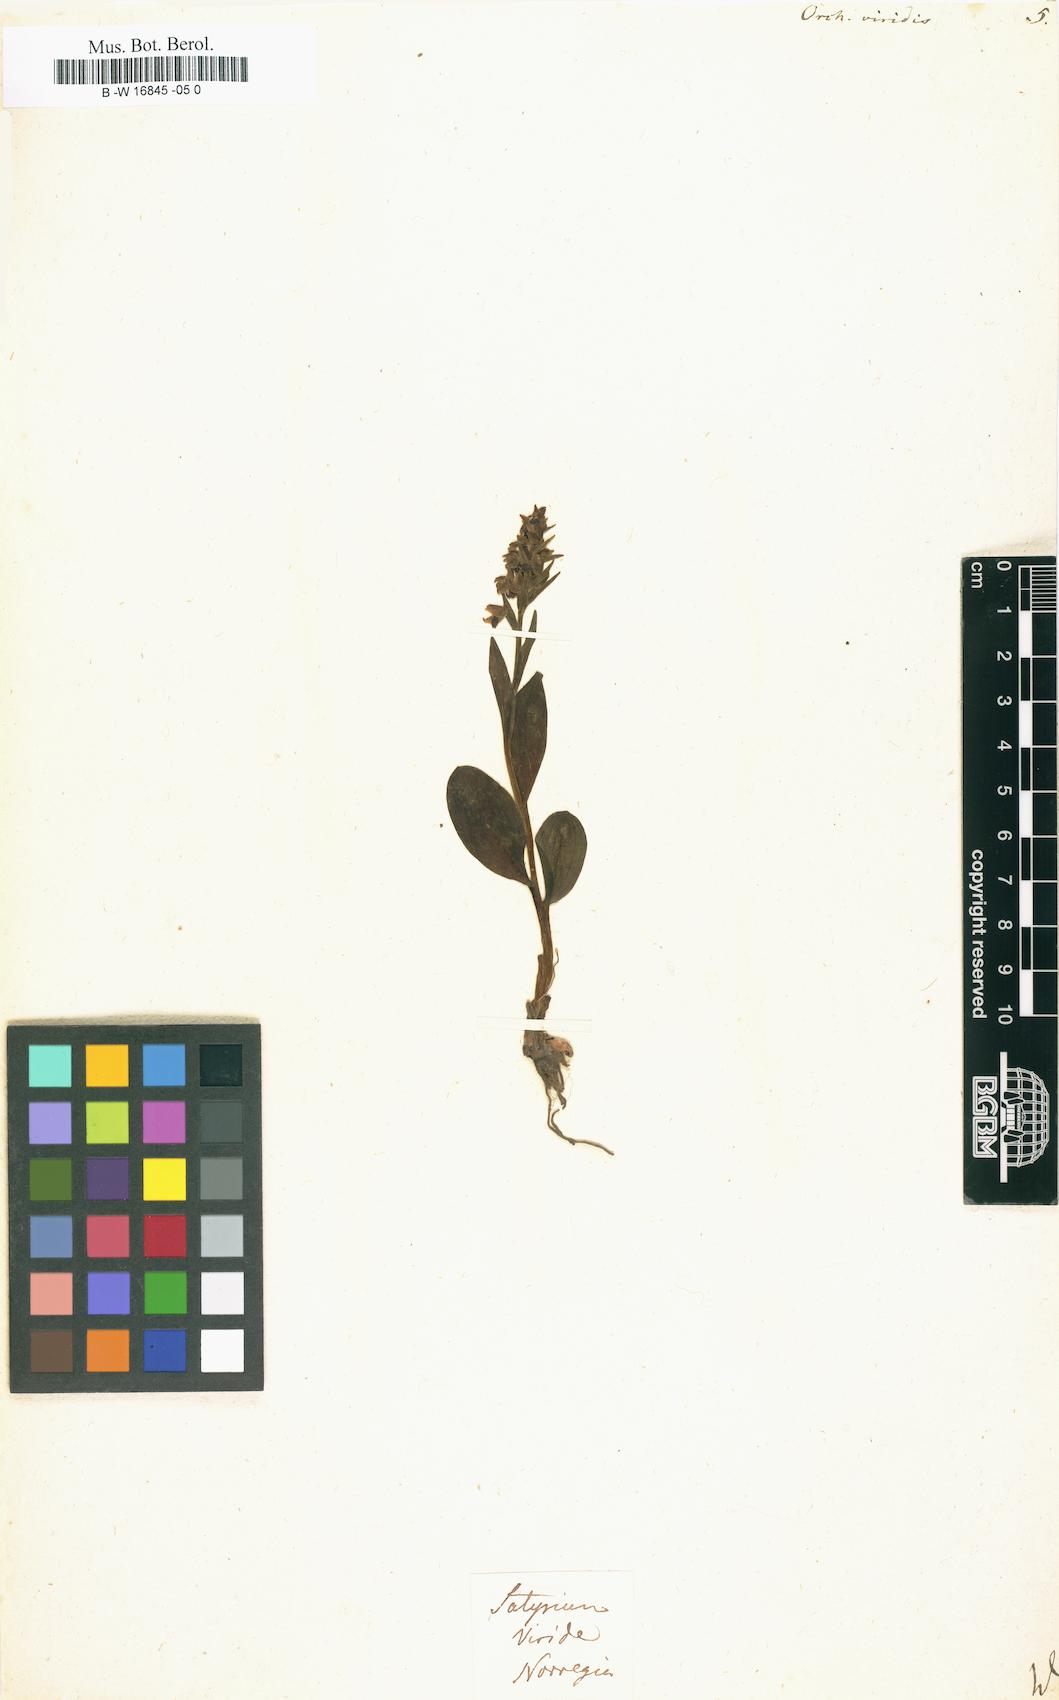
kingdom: Plantae
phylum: Tracheophyta
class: Liliopsida
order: Asparagales
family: Orchidaceae
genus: Dactylorhiza
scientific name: Dactylorhiza viridis
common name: Longbract frog orchid
